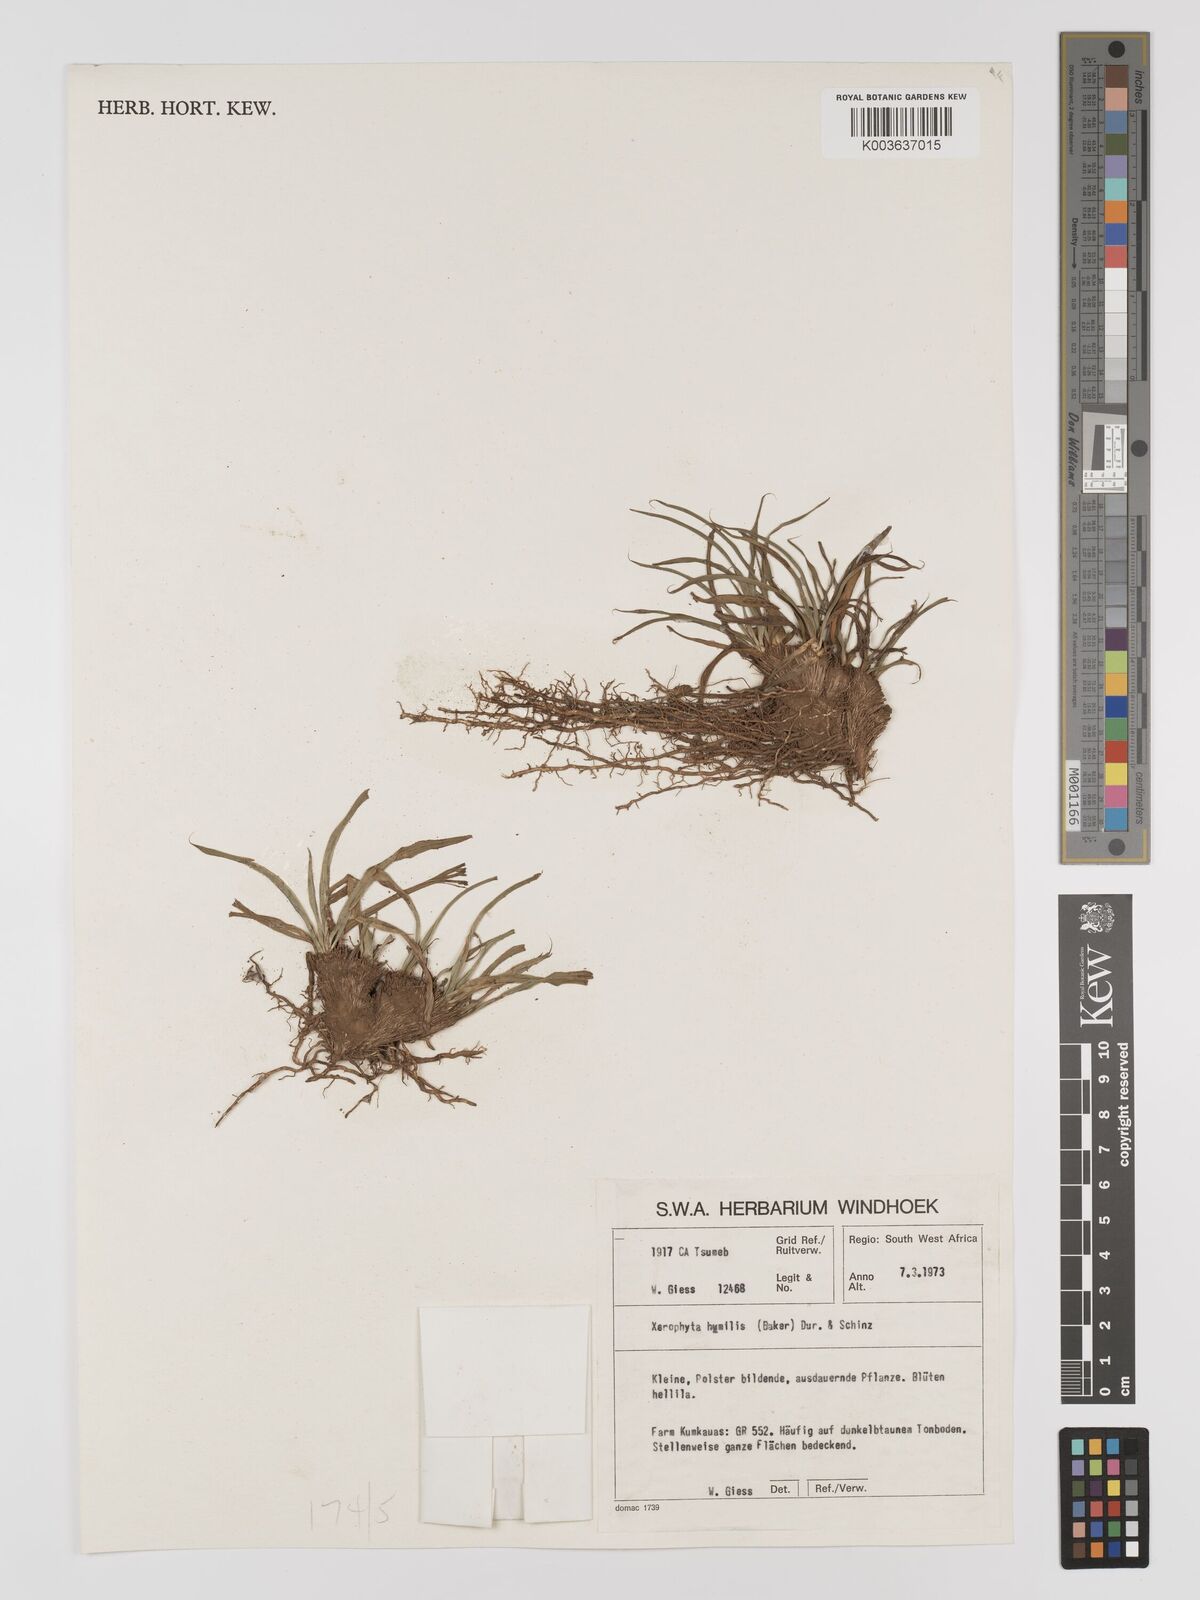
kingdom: Plantae
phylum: Tracheophyta
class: Liliopsida
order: Pandanales
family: Velloziaceae
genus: Xerophyta
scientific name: Xerophyta humilis
